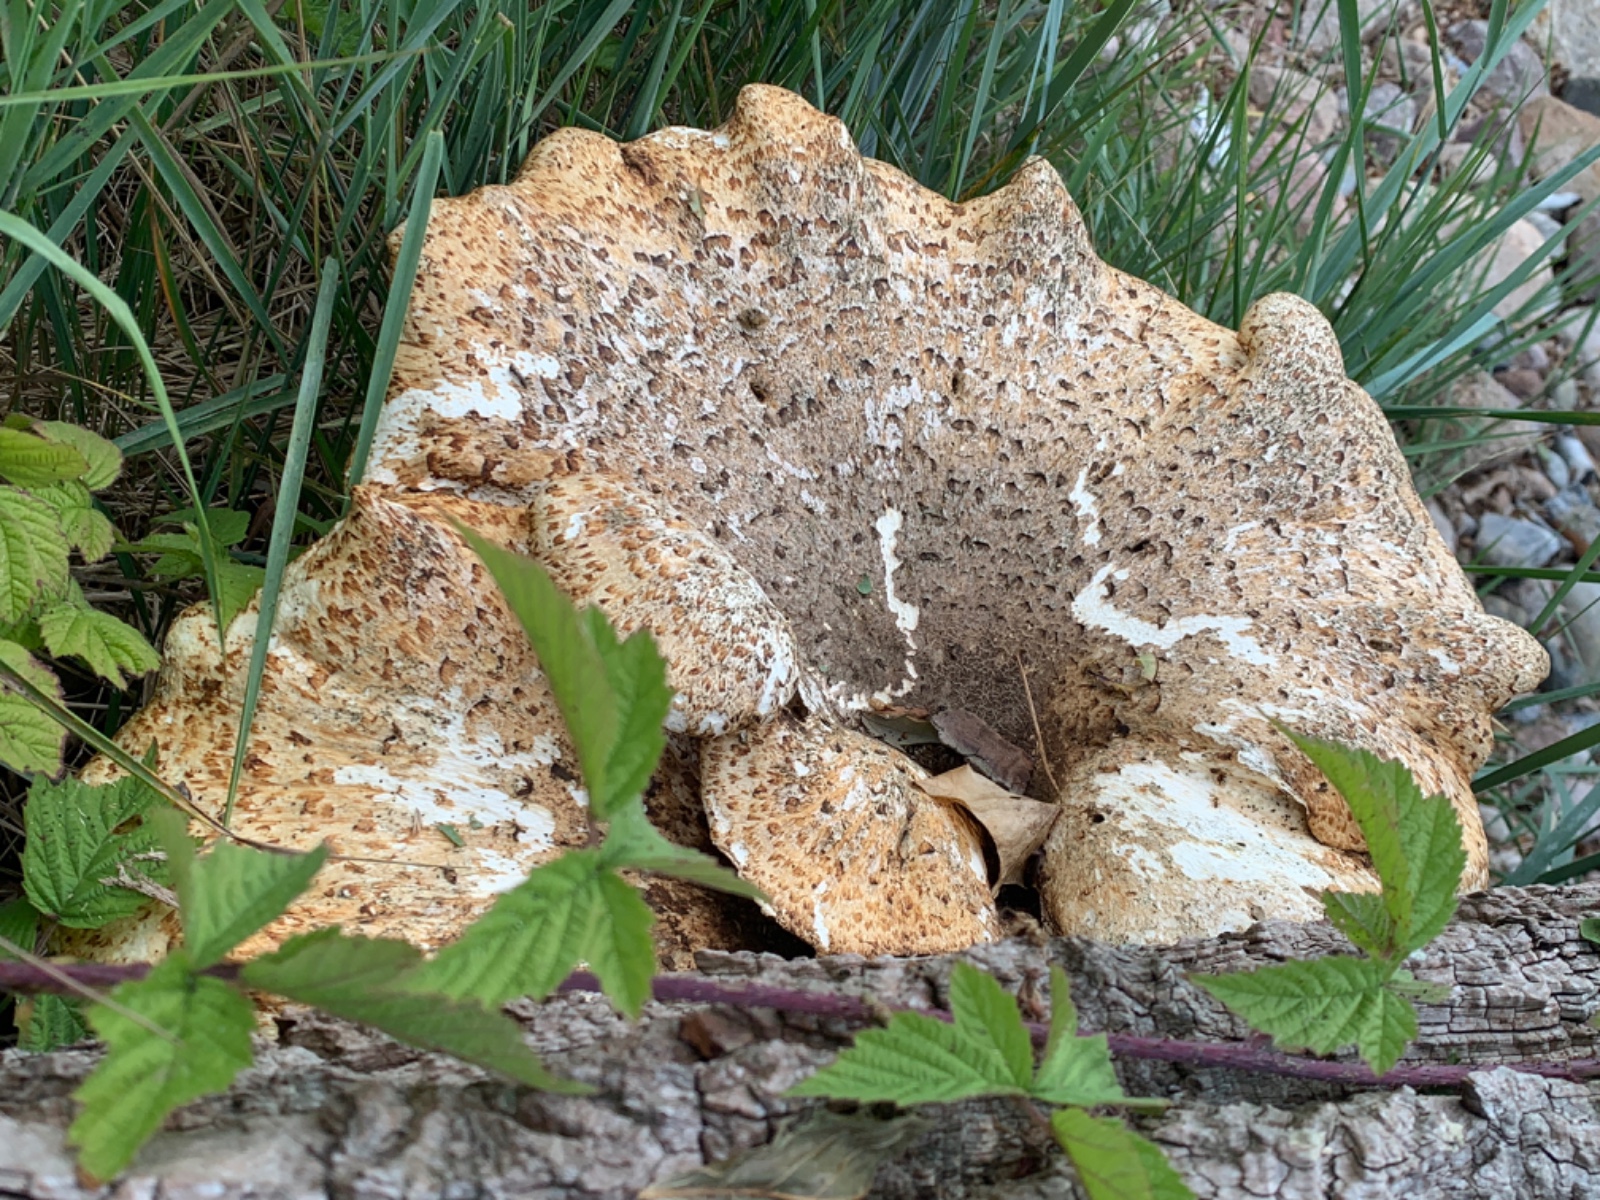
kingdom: Fungi
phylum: Basidiomycota
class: Agaricomycetes
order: Polyporales
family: Polyporaceae
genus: Cerioporus
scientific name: Cerioporus squamosus
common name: skællet stilkporesvamp
